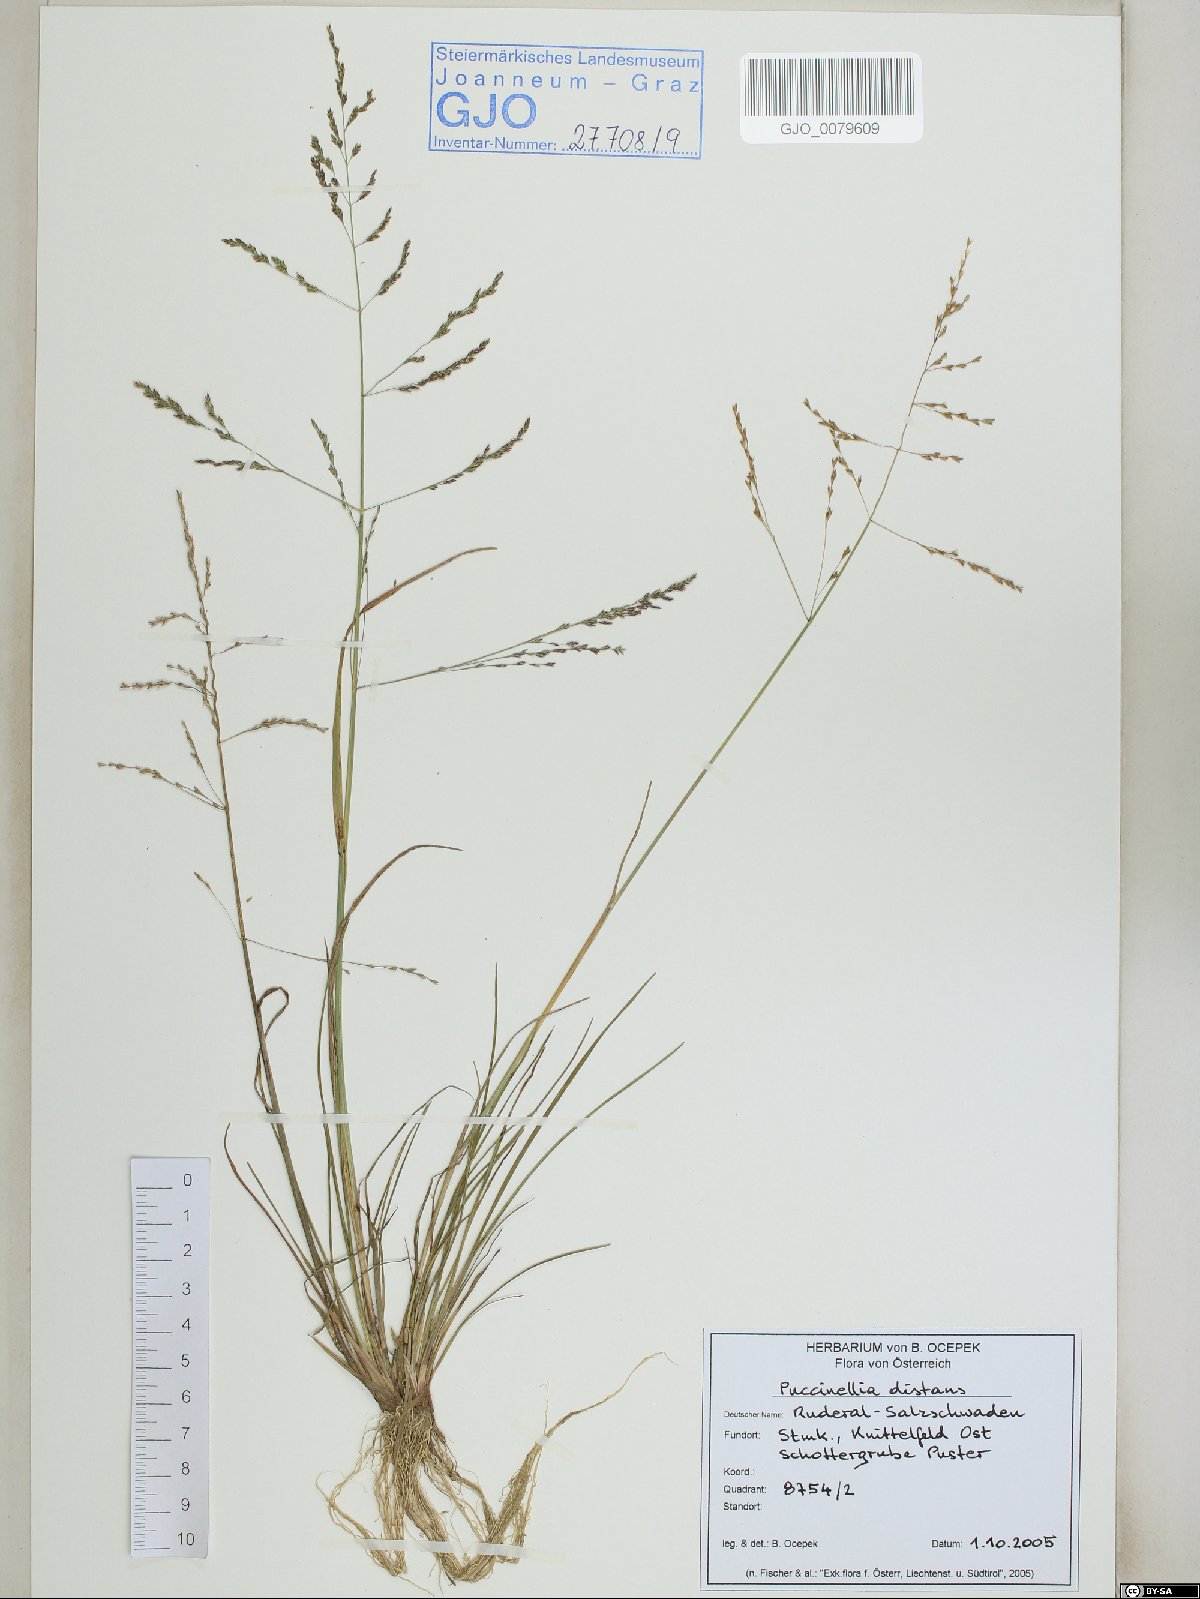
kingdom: Plantae
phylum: Tracheophyta
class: Liliopsida
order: Poales
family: Poaceae
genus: Puccinellia
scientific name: Puccinellia distans
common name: Weeping alkaligrass
